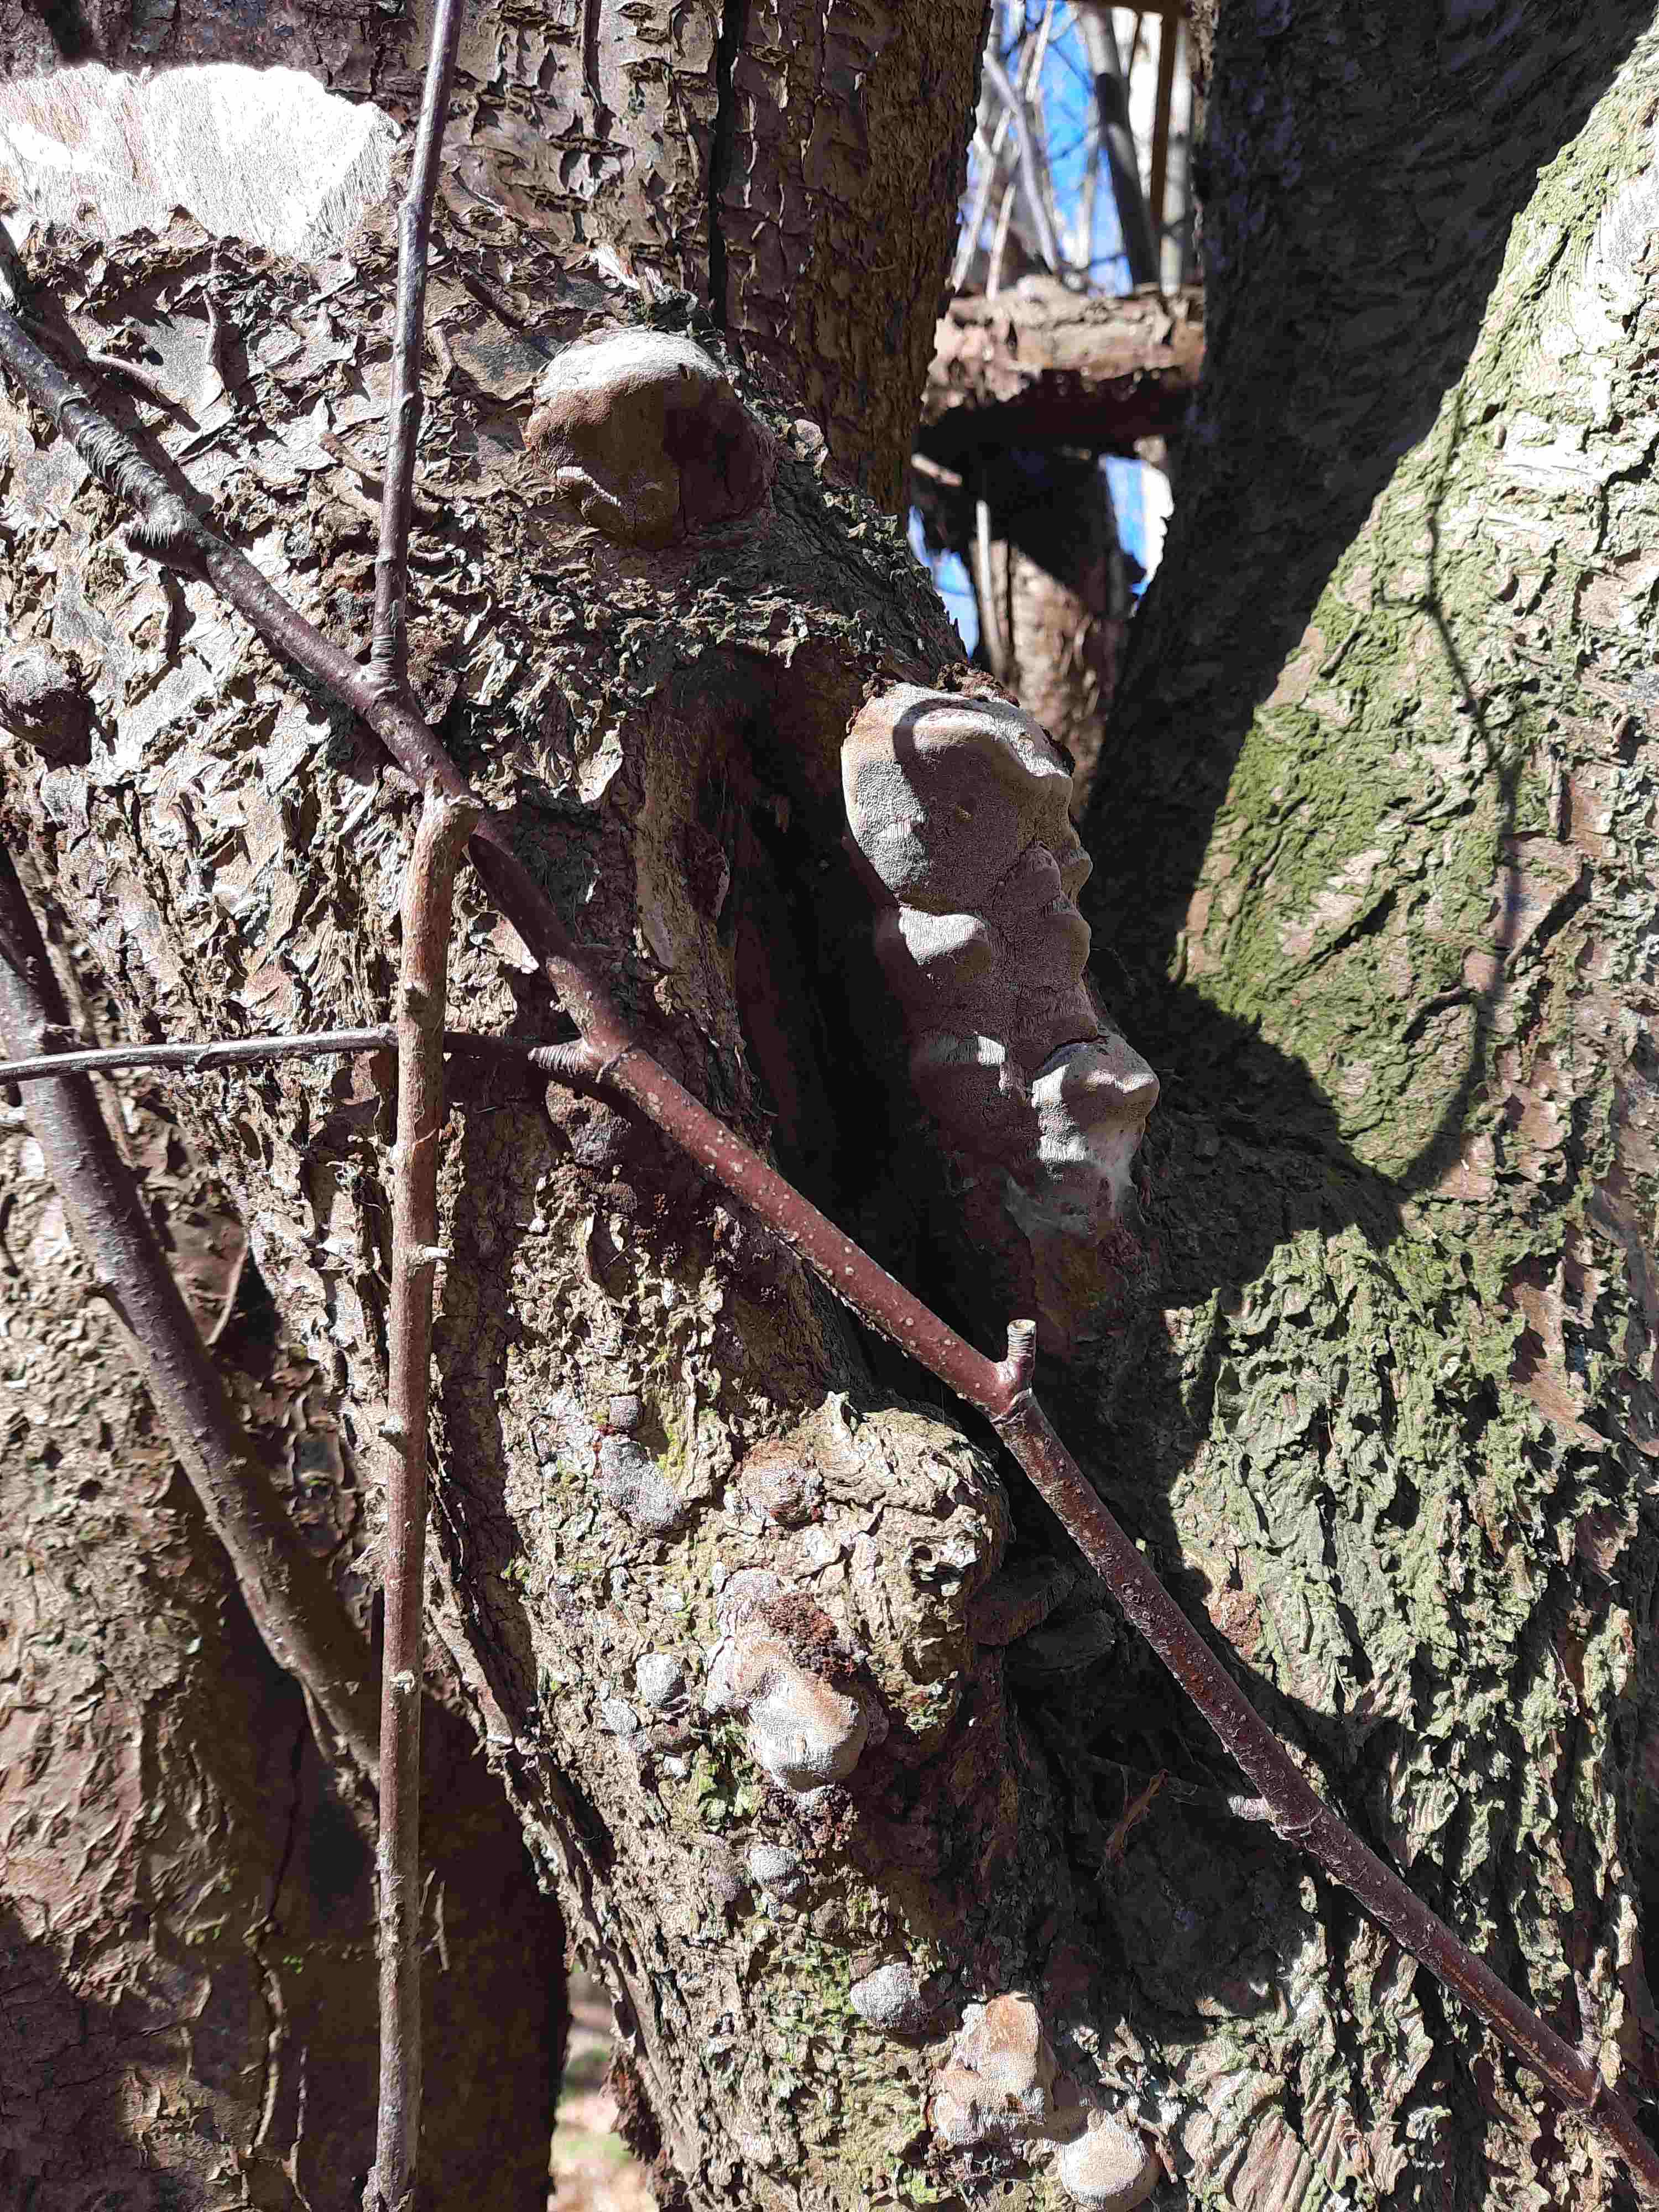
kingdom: Fungi
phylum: Basidiomycota
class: Agaricomycetes
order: Hymenochaetales
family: Hymenochaetaceae
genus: Phellinus
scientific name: Phellinus pomaceus
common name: blomme-ildporesvamp
